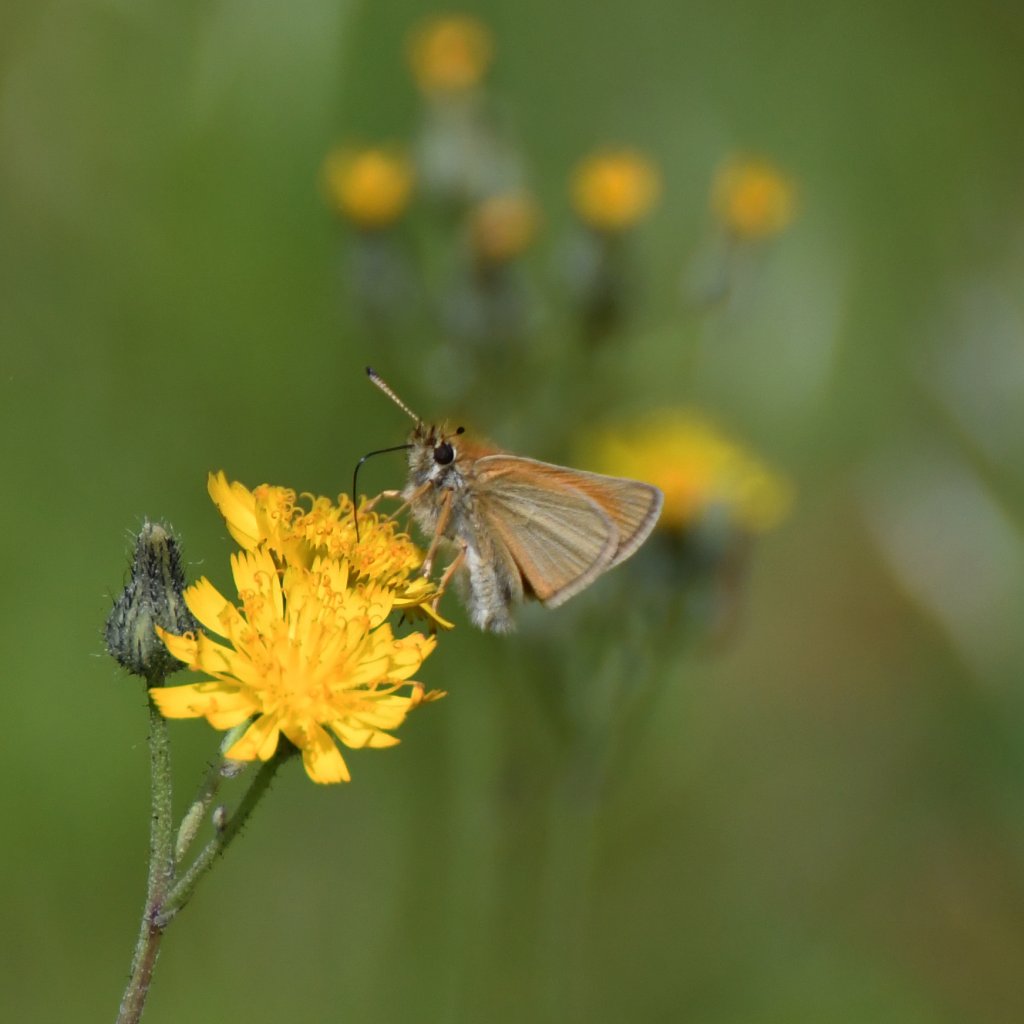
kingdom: Animalia
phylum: Arthropoda
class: Insecta
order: Lepidoptera
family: Hesperiidae
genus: Thymelicus
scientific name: Thymelicus lineola
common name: European Skipper
